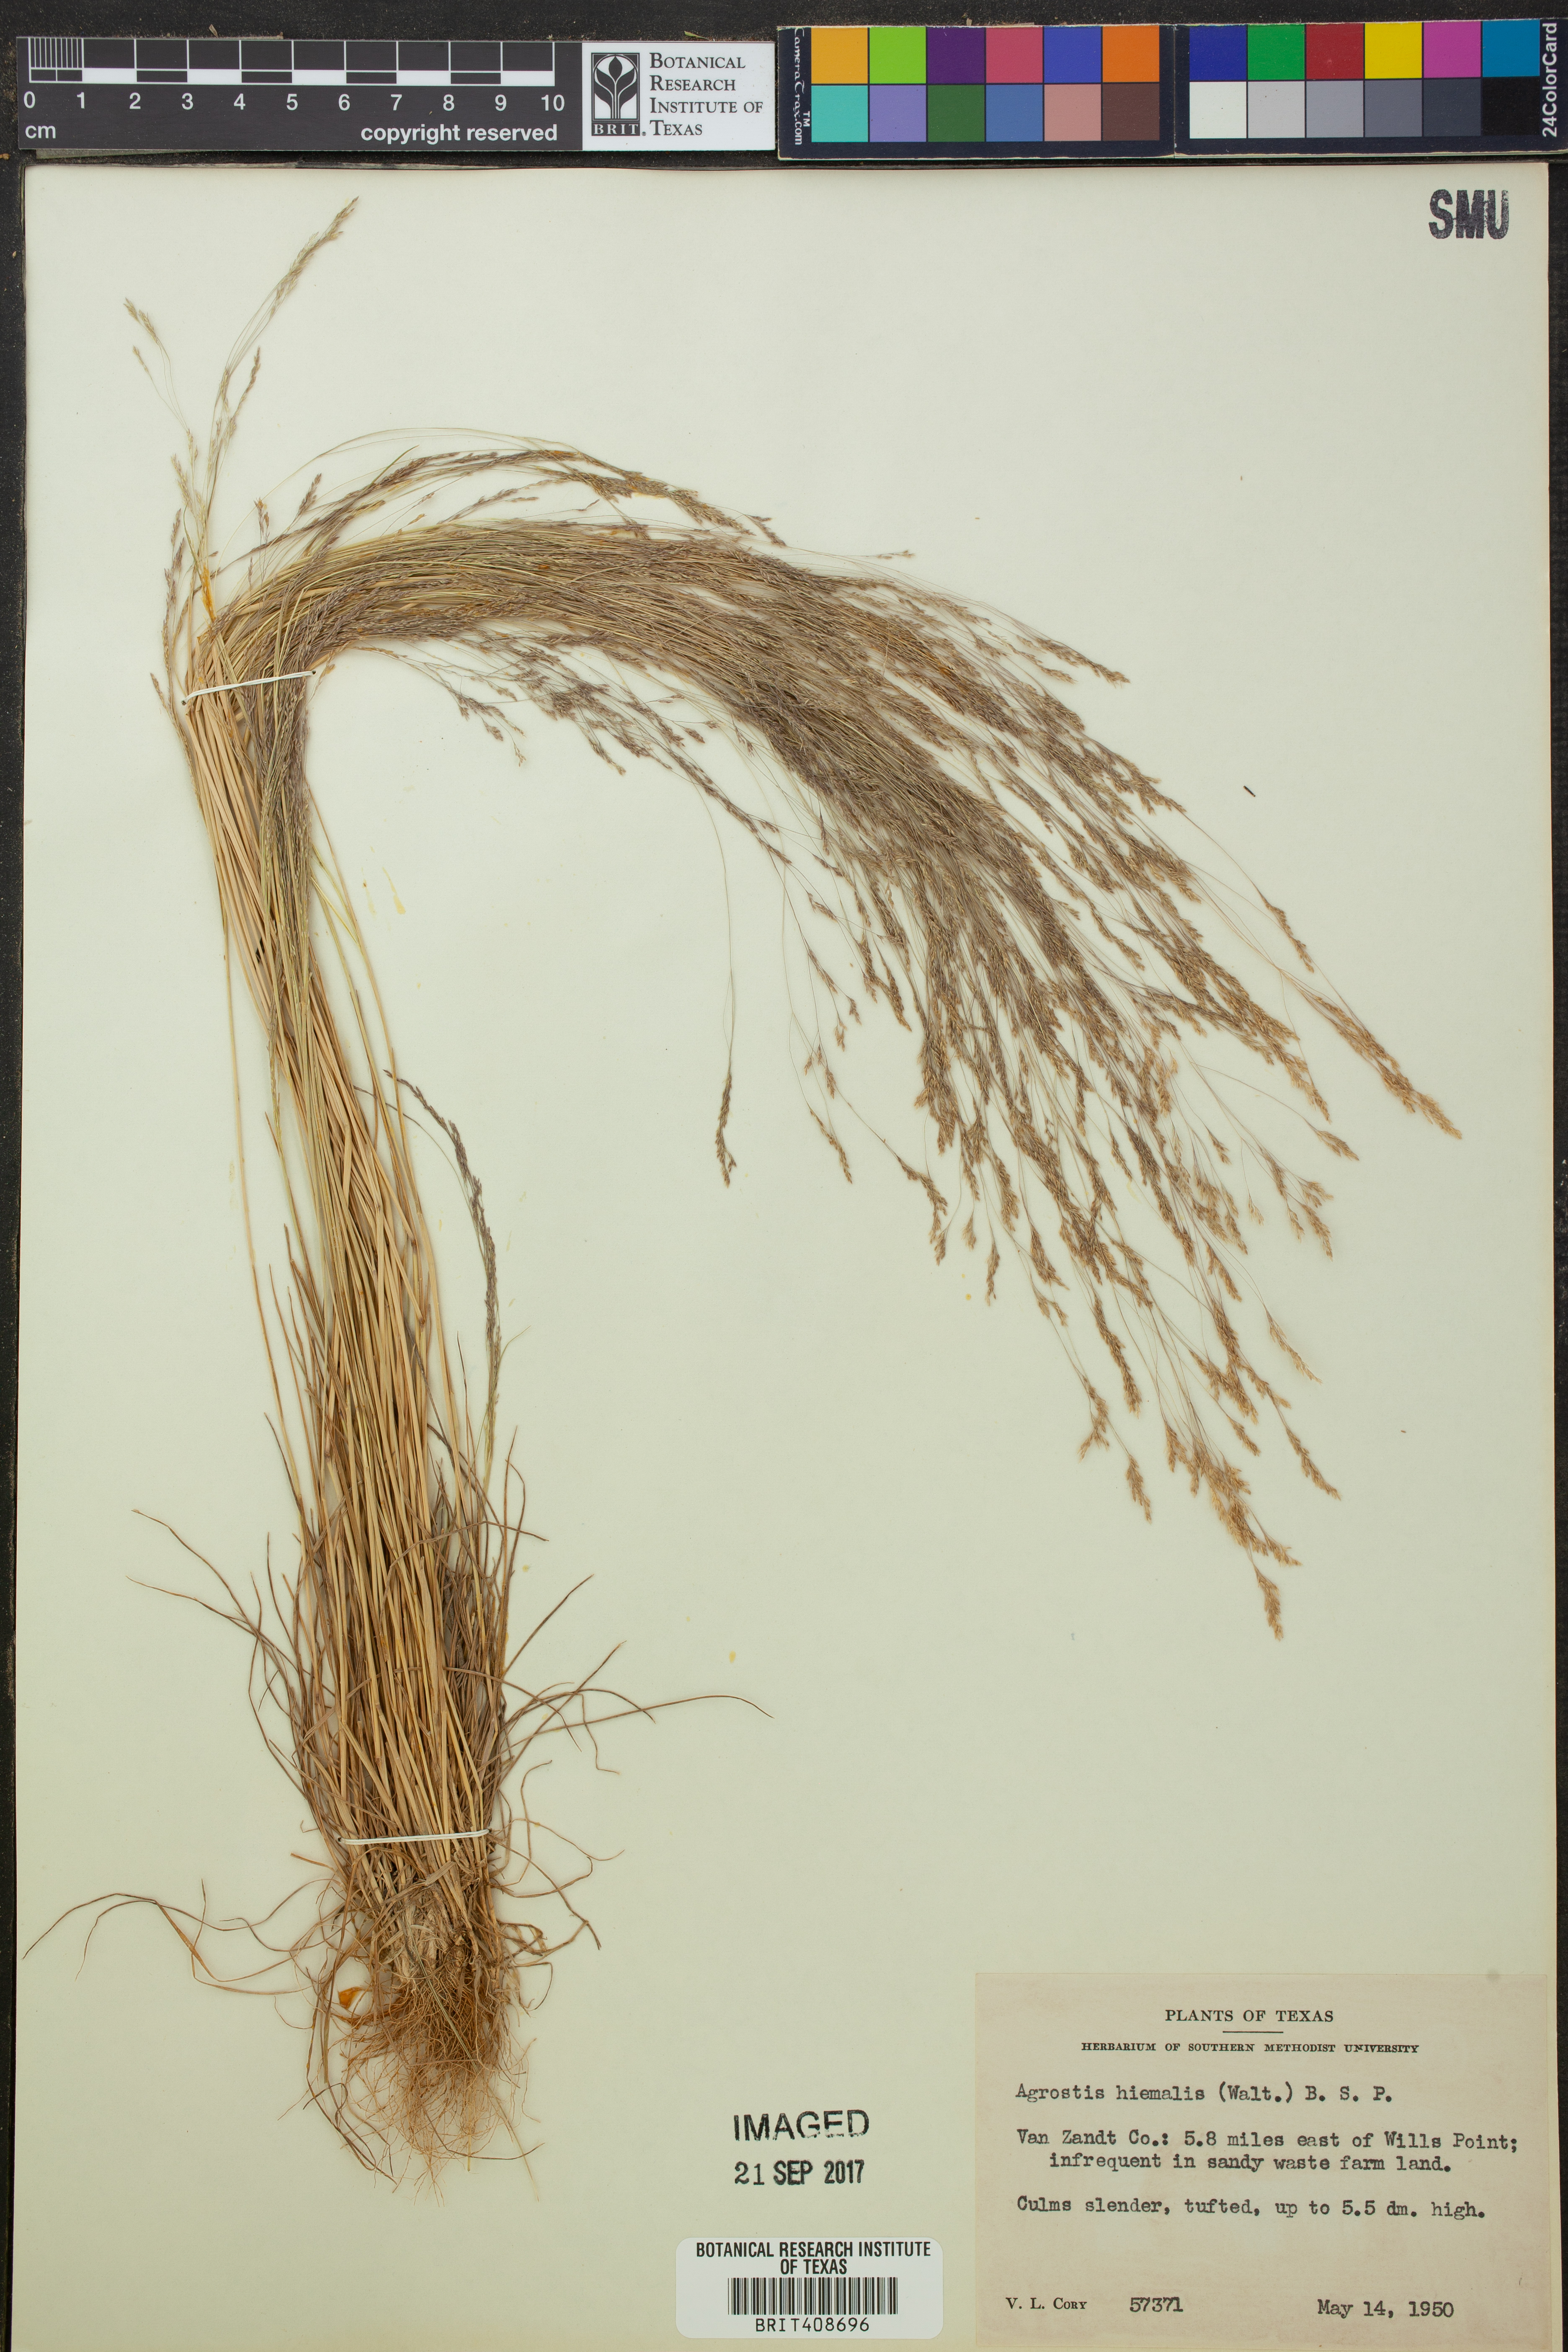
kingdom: Plantae
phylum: Tracheophyta
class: Liliopsida
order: Poales
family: Poaceae
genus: Agrostis
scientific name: Agrostis hyemalis
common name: Small bent
